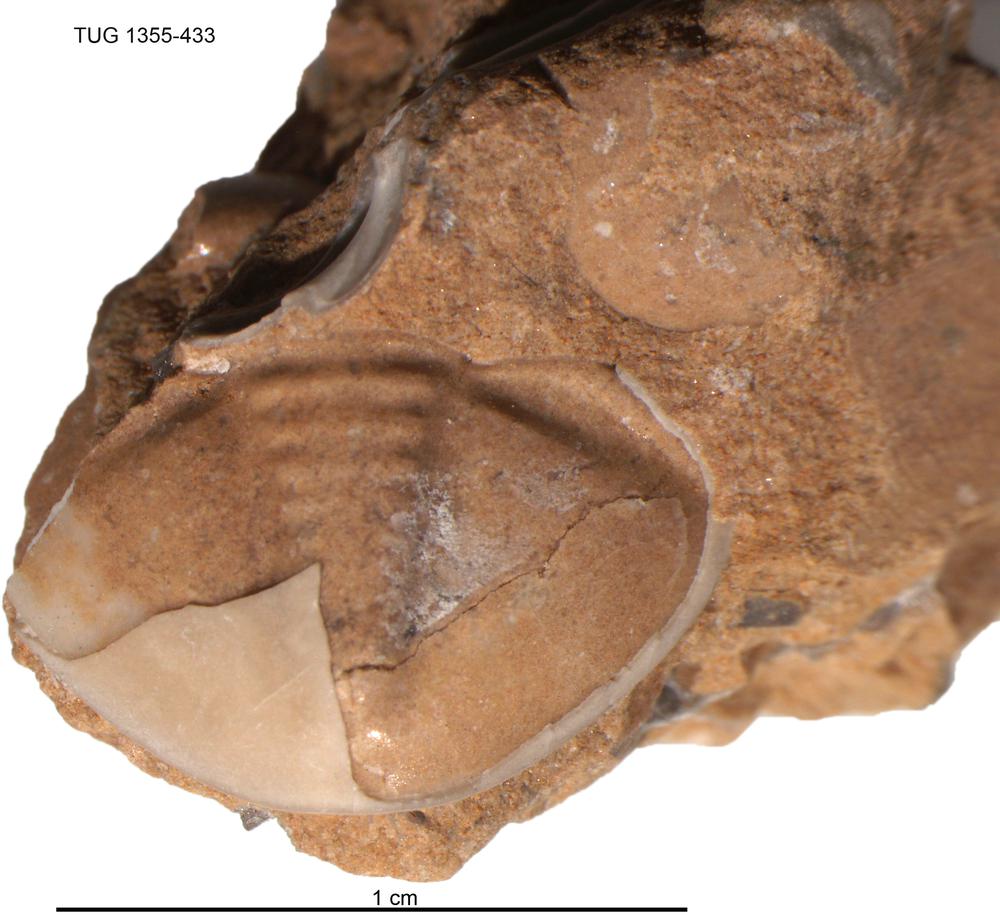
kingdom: Animalia
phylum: Arthropoda
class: Trilobita
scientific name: Trilobita
